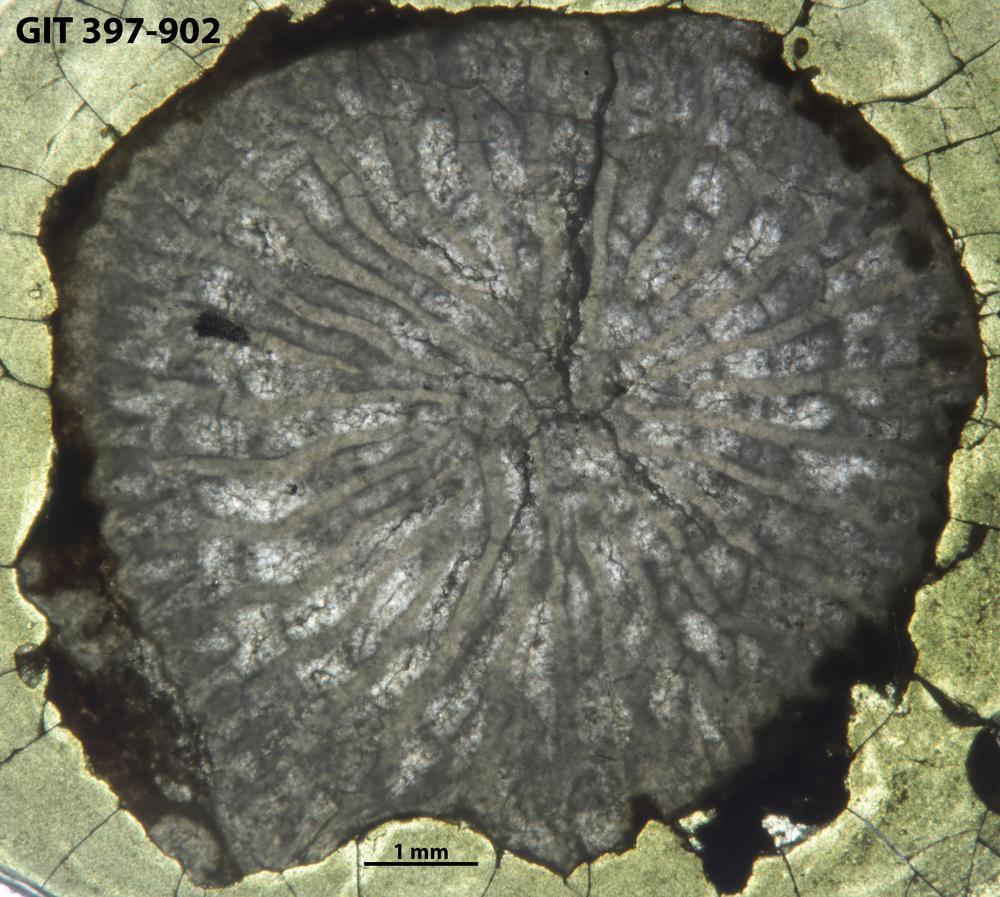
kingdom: Animalia
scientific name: Animalia
